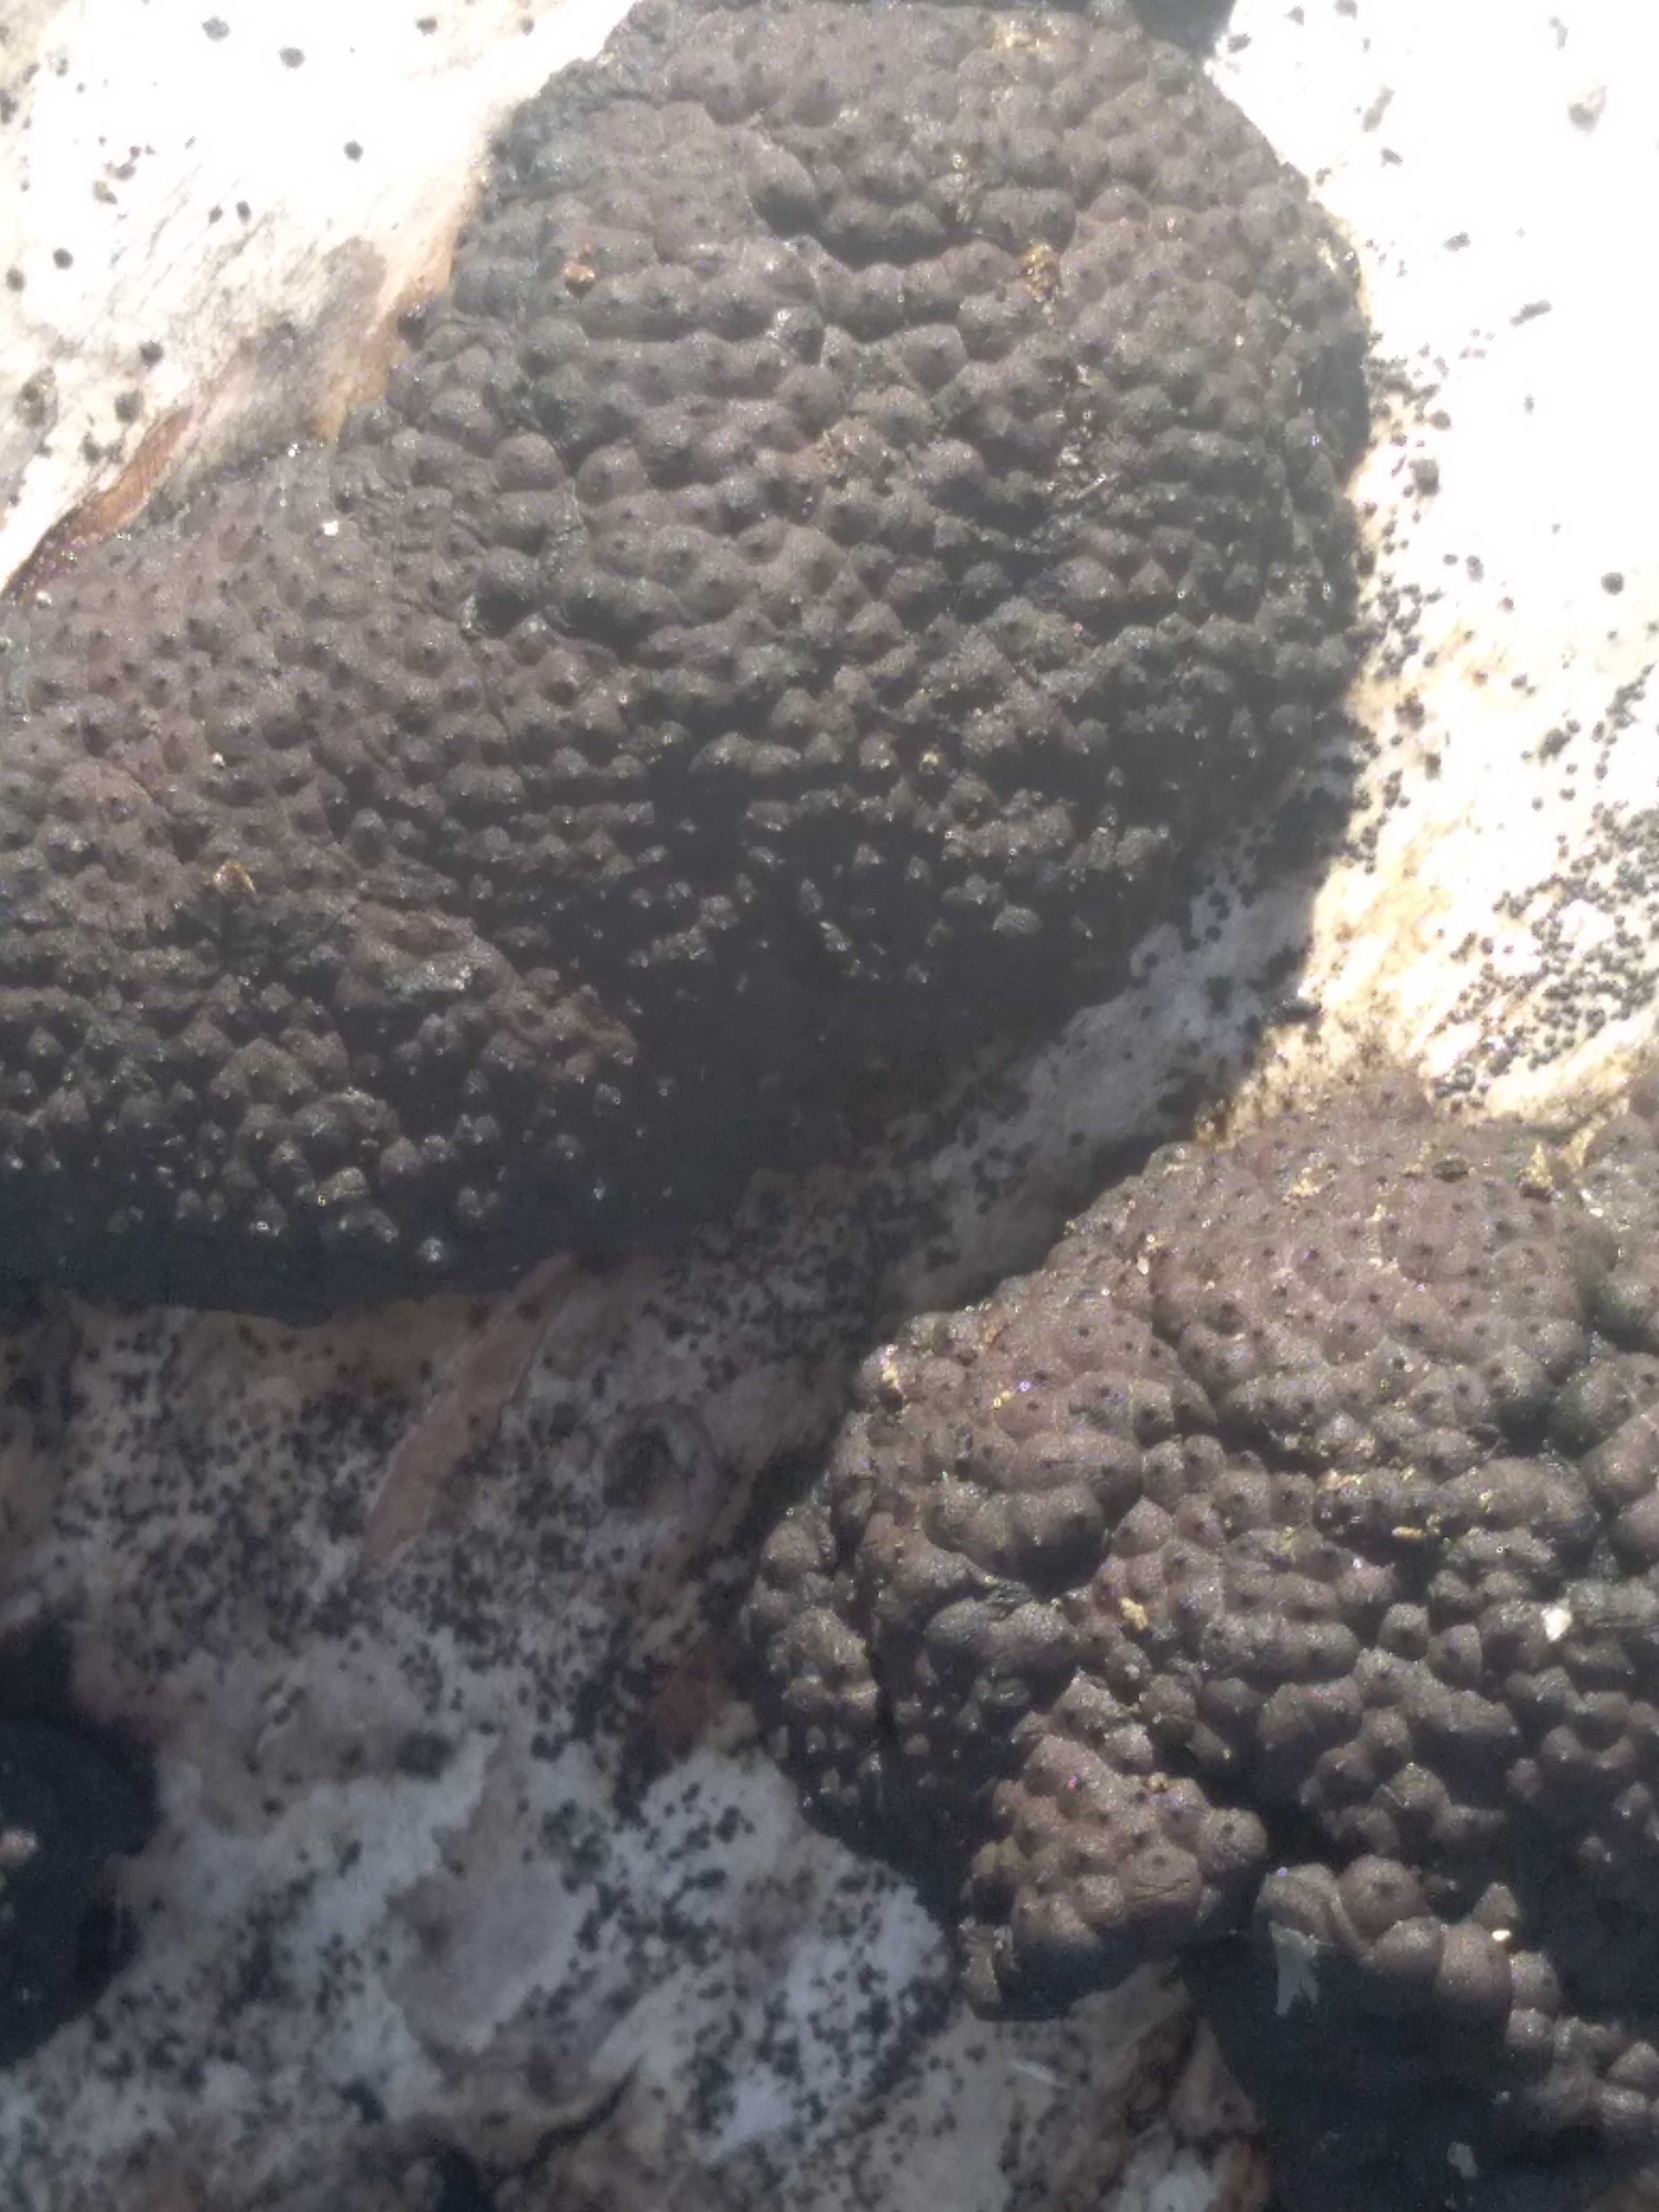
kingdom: Fungi
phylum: Ascomycota
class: Sordariomycetes
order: Xylariales
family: Hypoxylaceae
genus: Jackrogersella
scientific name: Jackrogersella multiformis
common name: foranderlig kulbær
